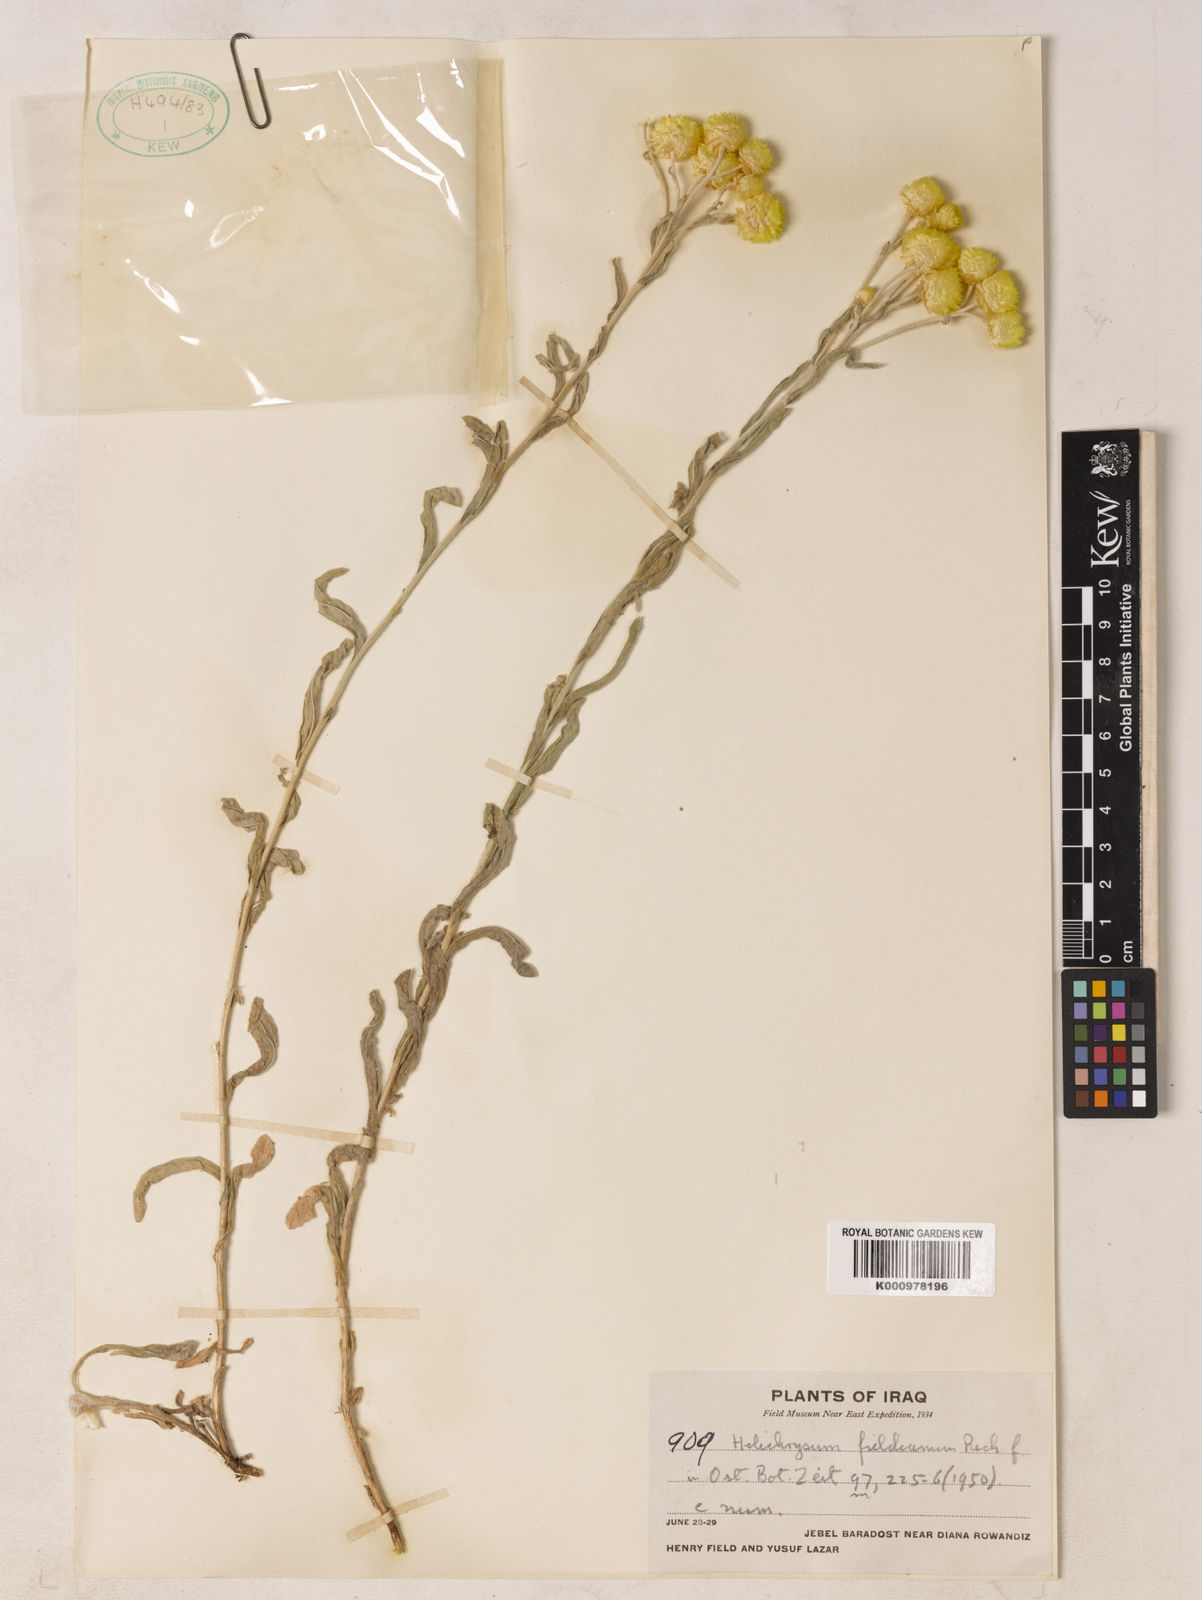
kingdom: Plantae
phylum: Tracheophyta
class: Magnoliopsida
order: Asterales
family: Asteraceae
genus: Helichrysum
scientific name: Helichrysum pallasii
